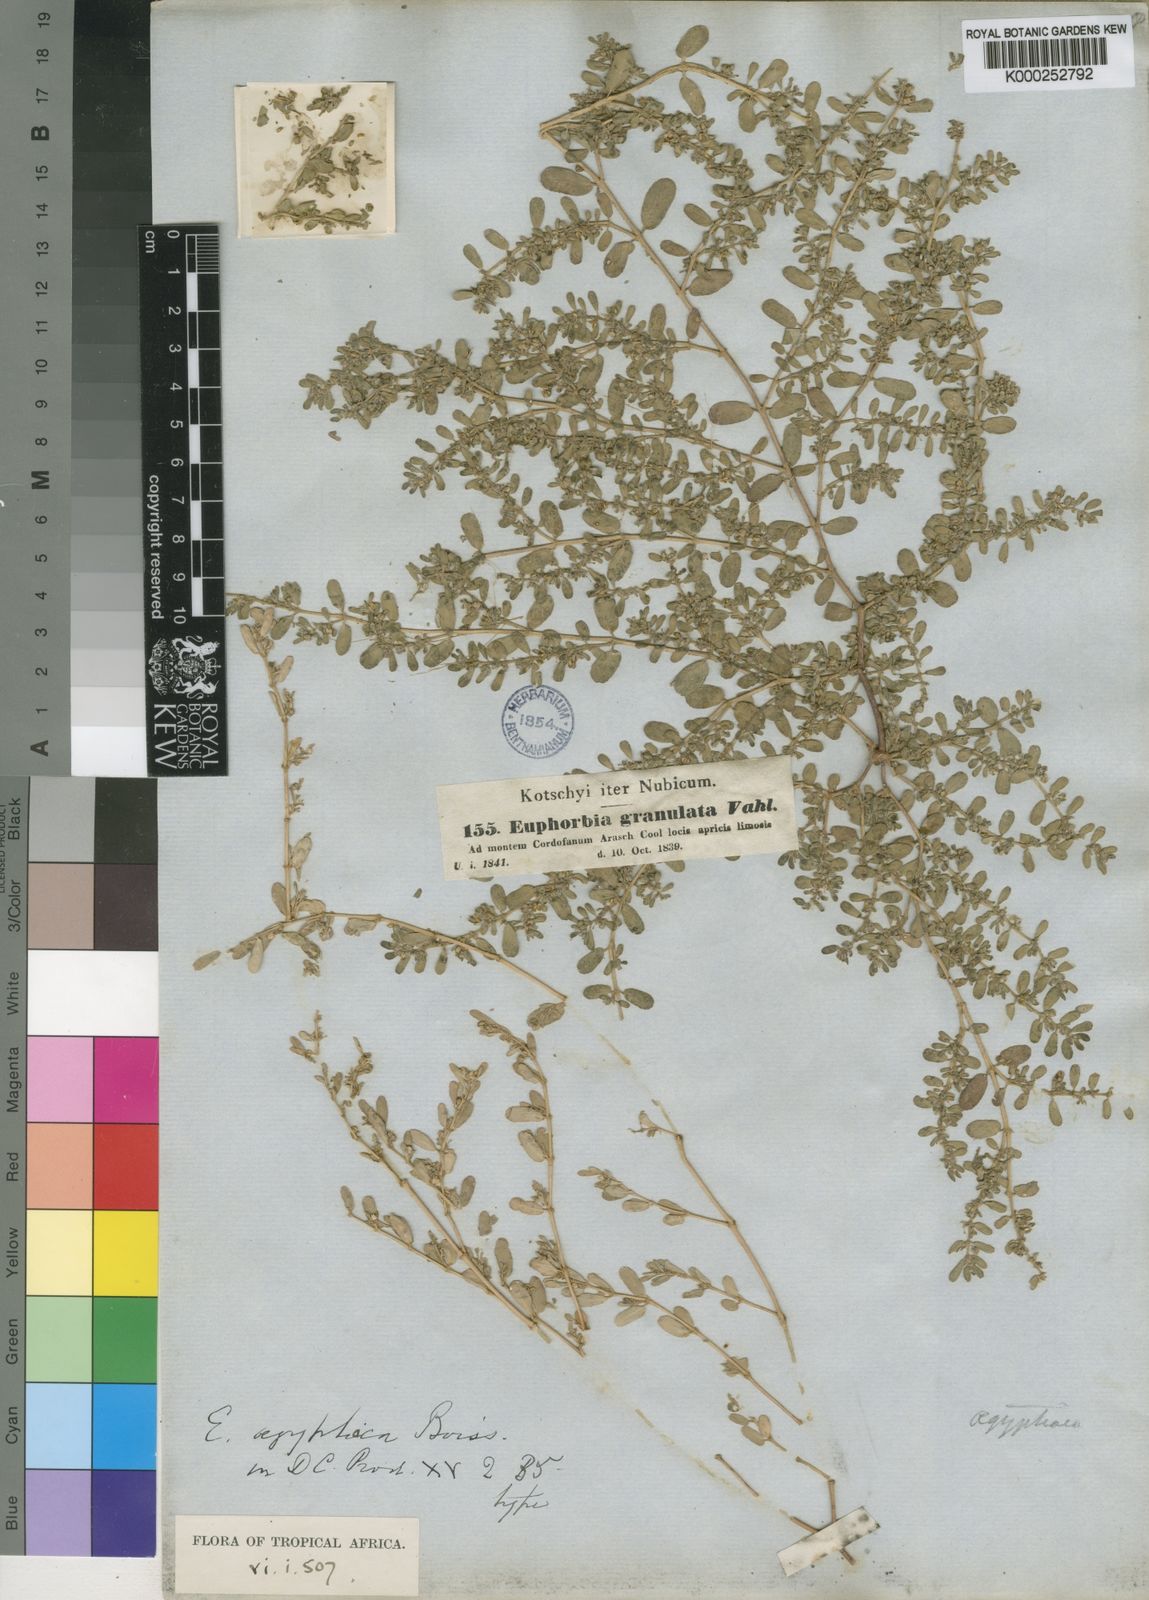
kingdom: Plantae
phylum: Tracheophyta
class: Magnoliopsida
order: Malpighiales
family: Euphorbiaceae
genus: Euphorbia
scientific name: Euphorbia
